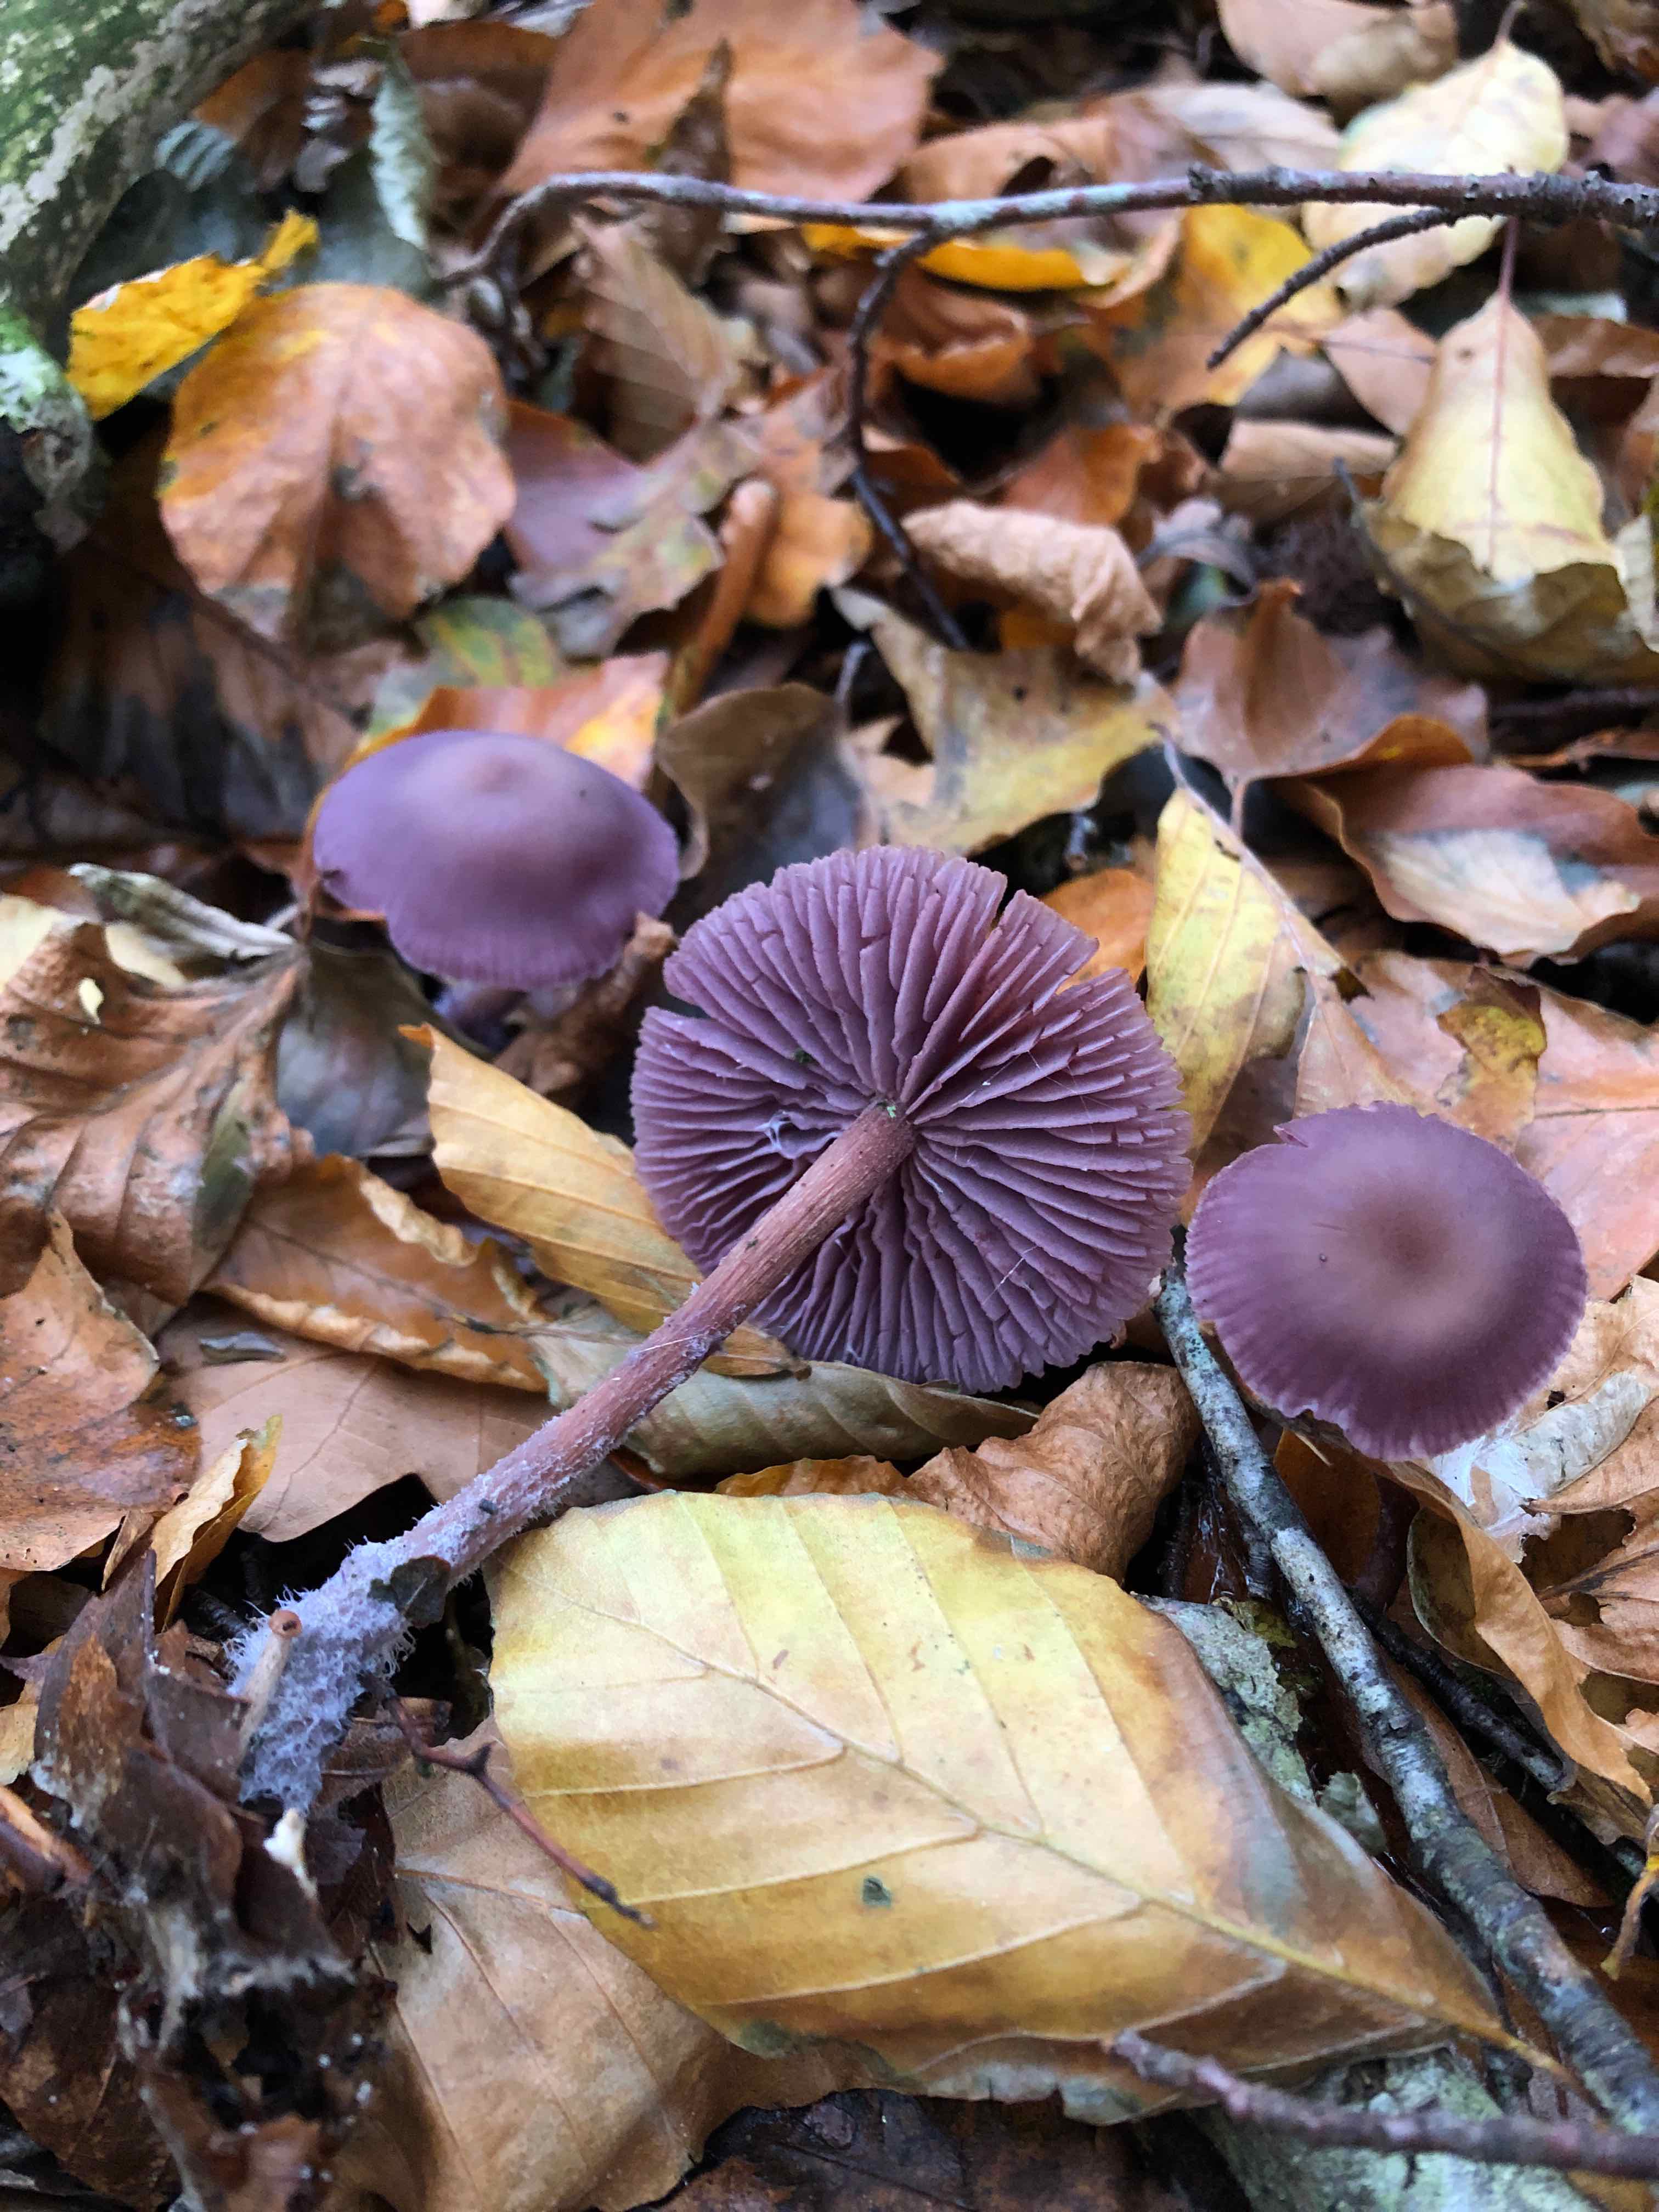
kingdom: Fungi
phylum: Basidiomycota
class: Agaricomycetes
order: Agaricales
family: Hydnangiaceae
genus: Laccaria
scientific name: Laccaria amethystina
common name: violet ametysthat
